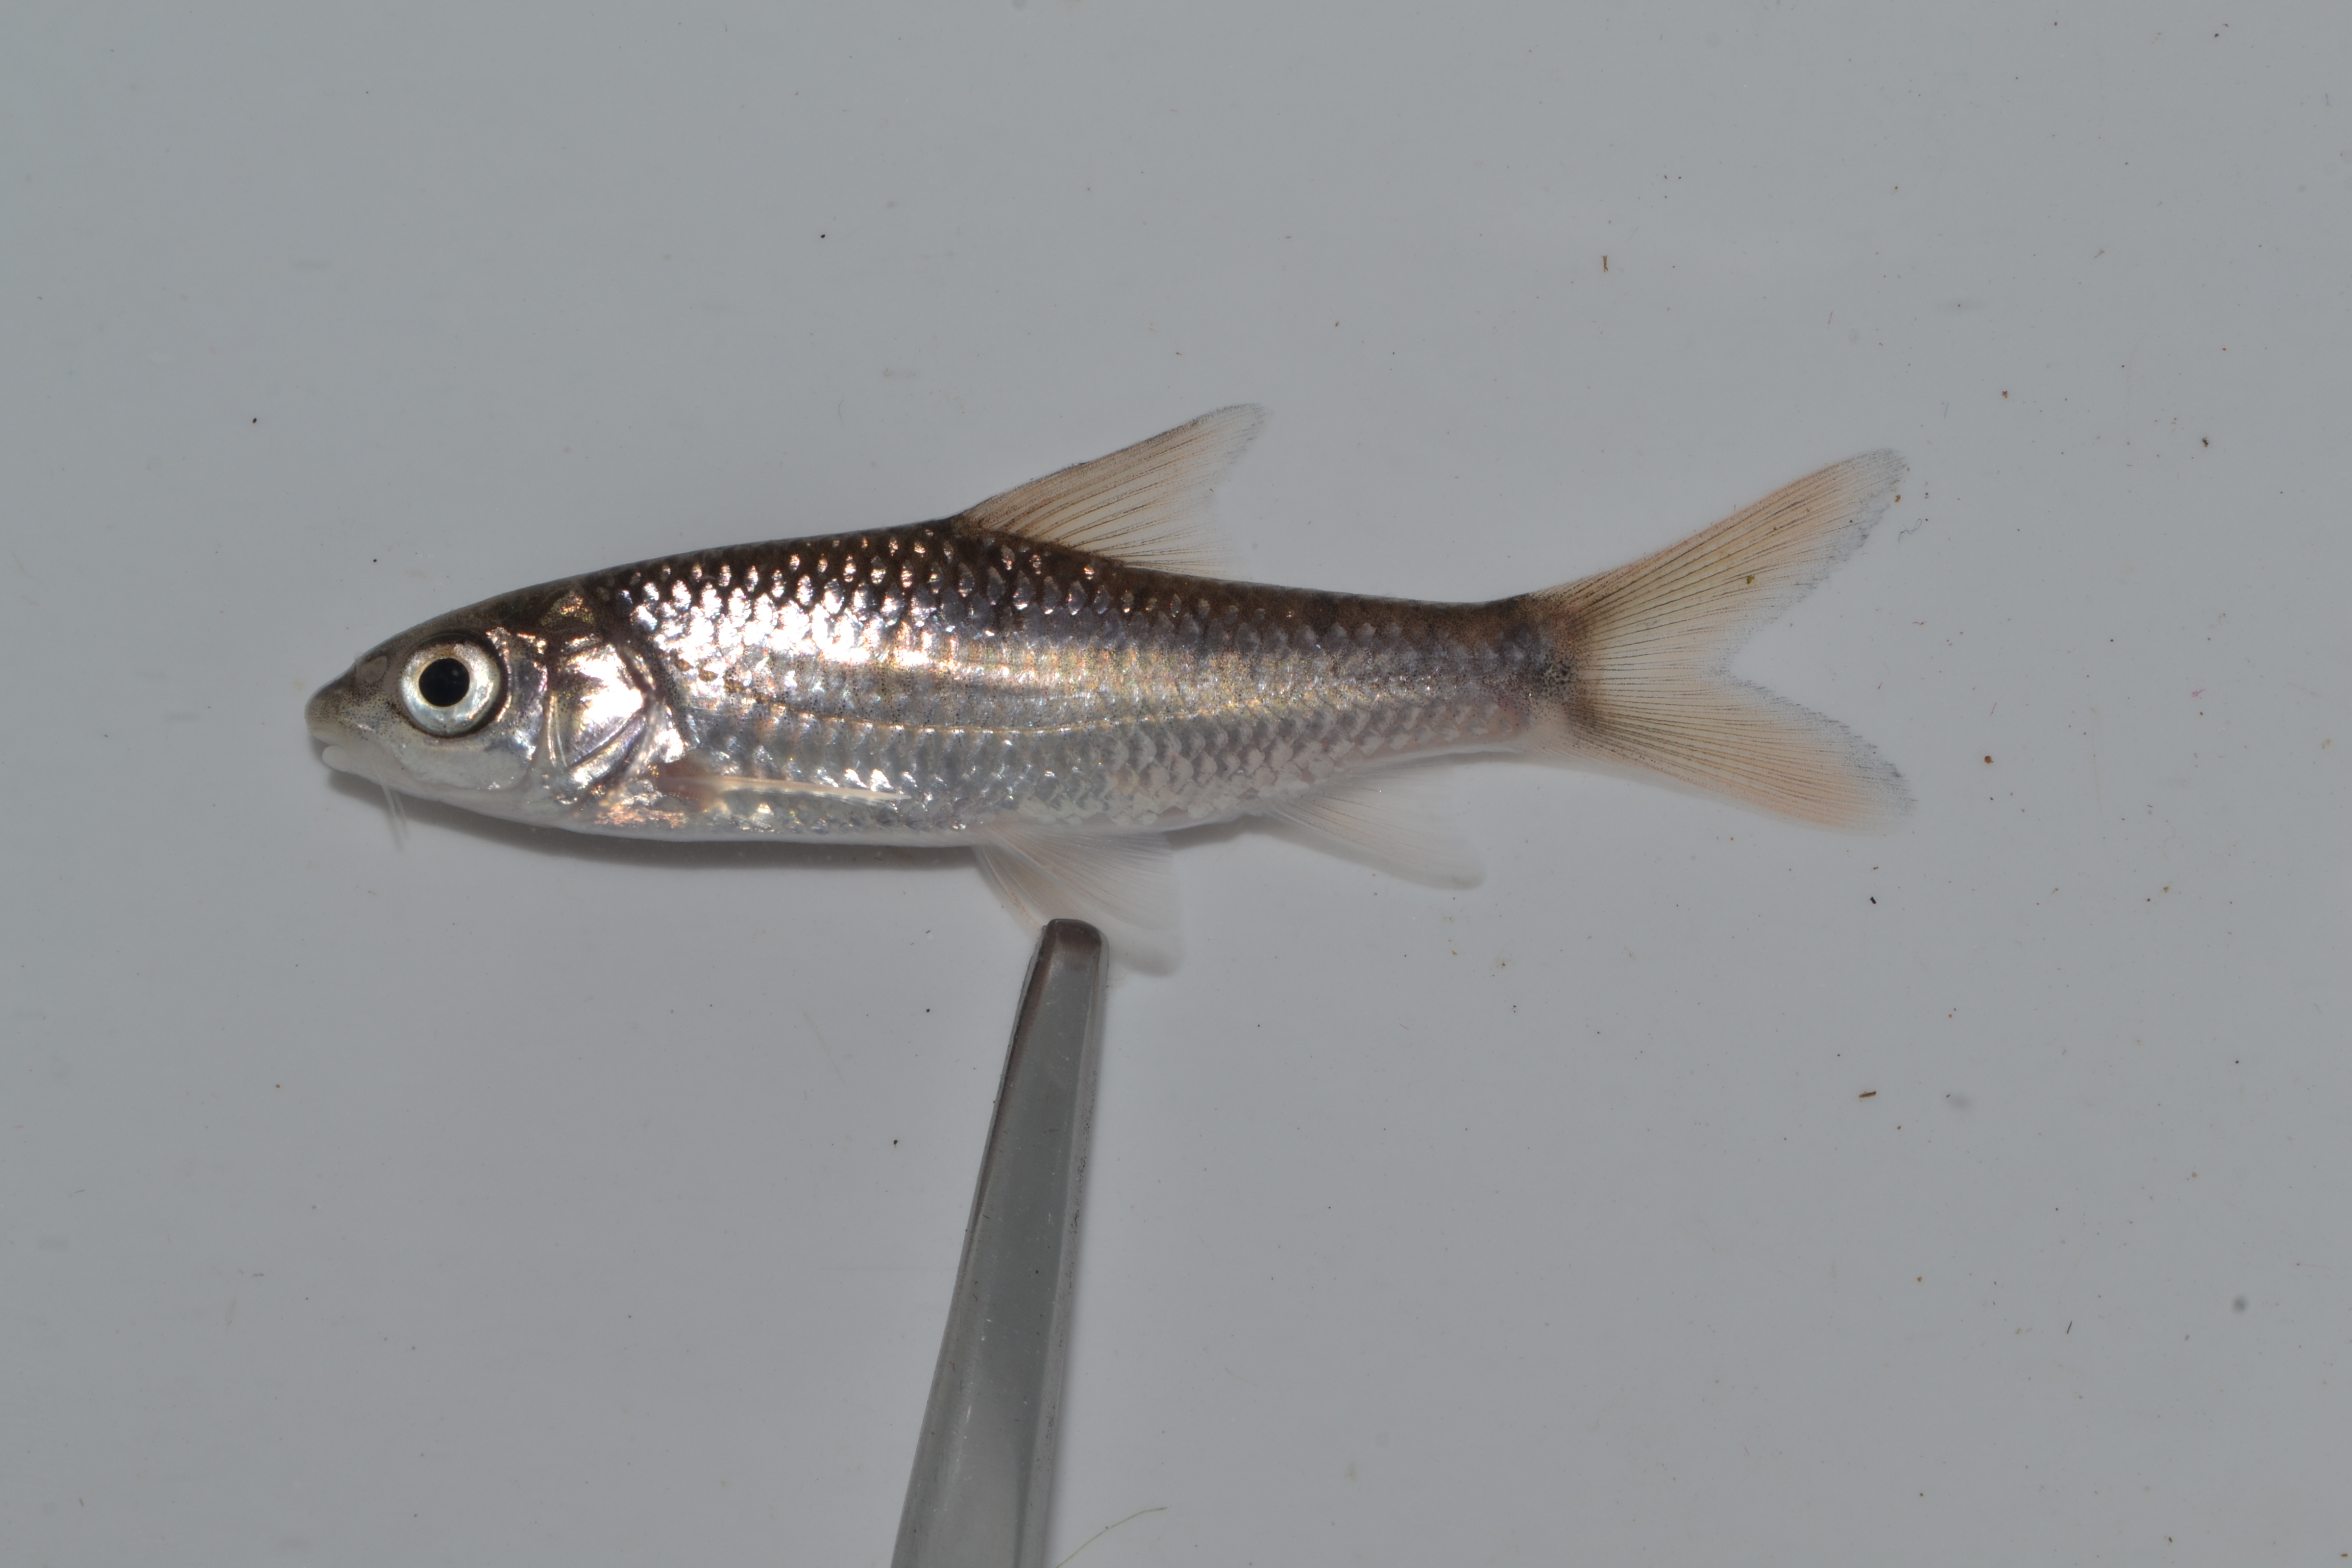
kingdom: Animalia
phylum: Chordata
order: Cypriniformes
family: Cyprinidae
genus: Labeobarbus
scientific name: Labeobarbus natalensis
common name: Scaly
